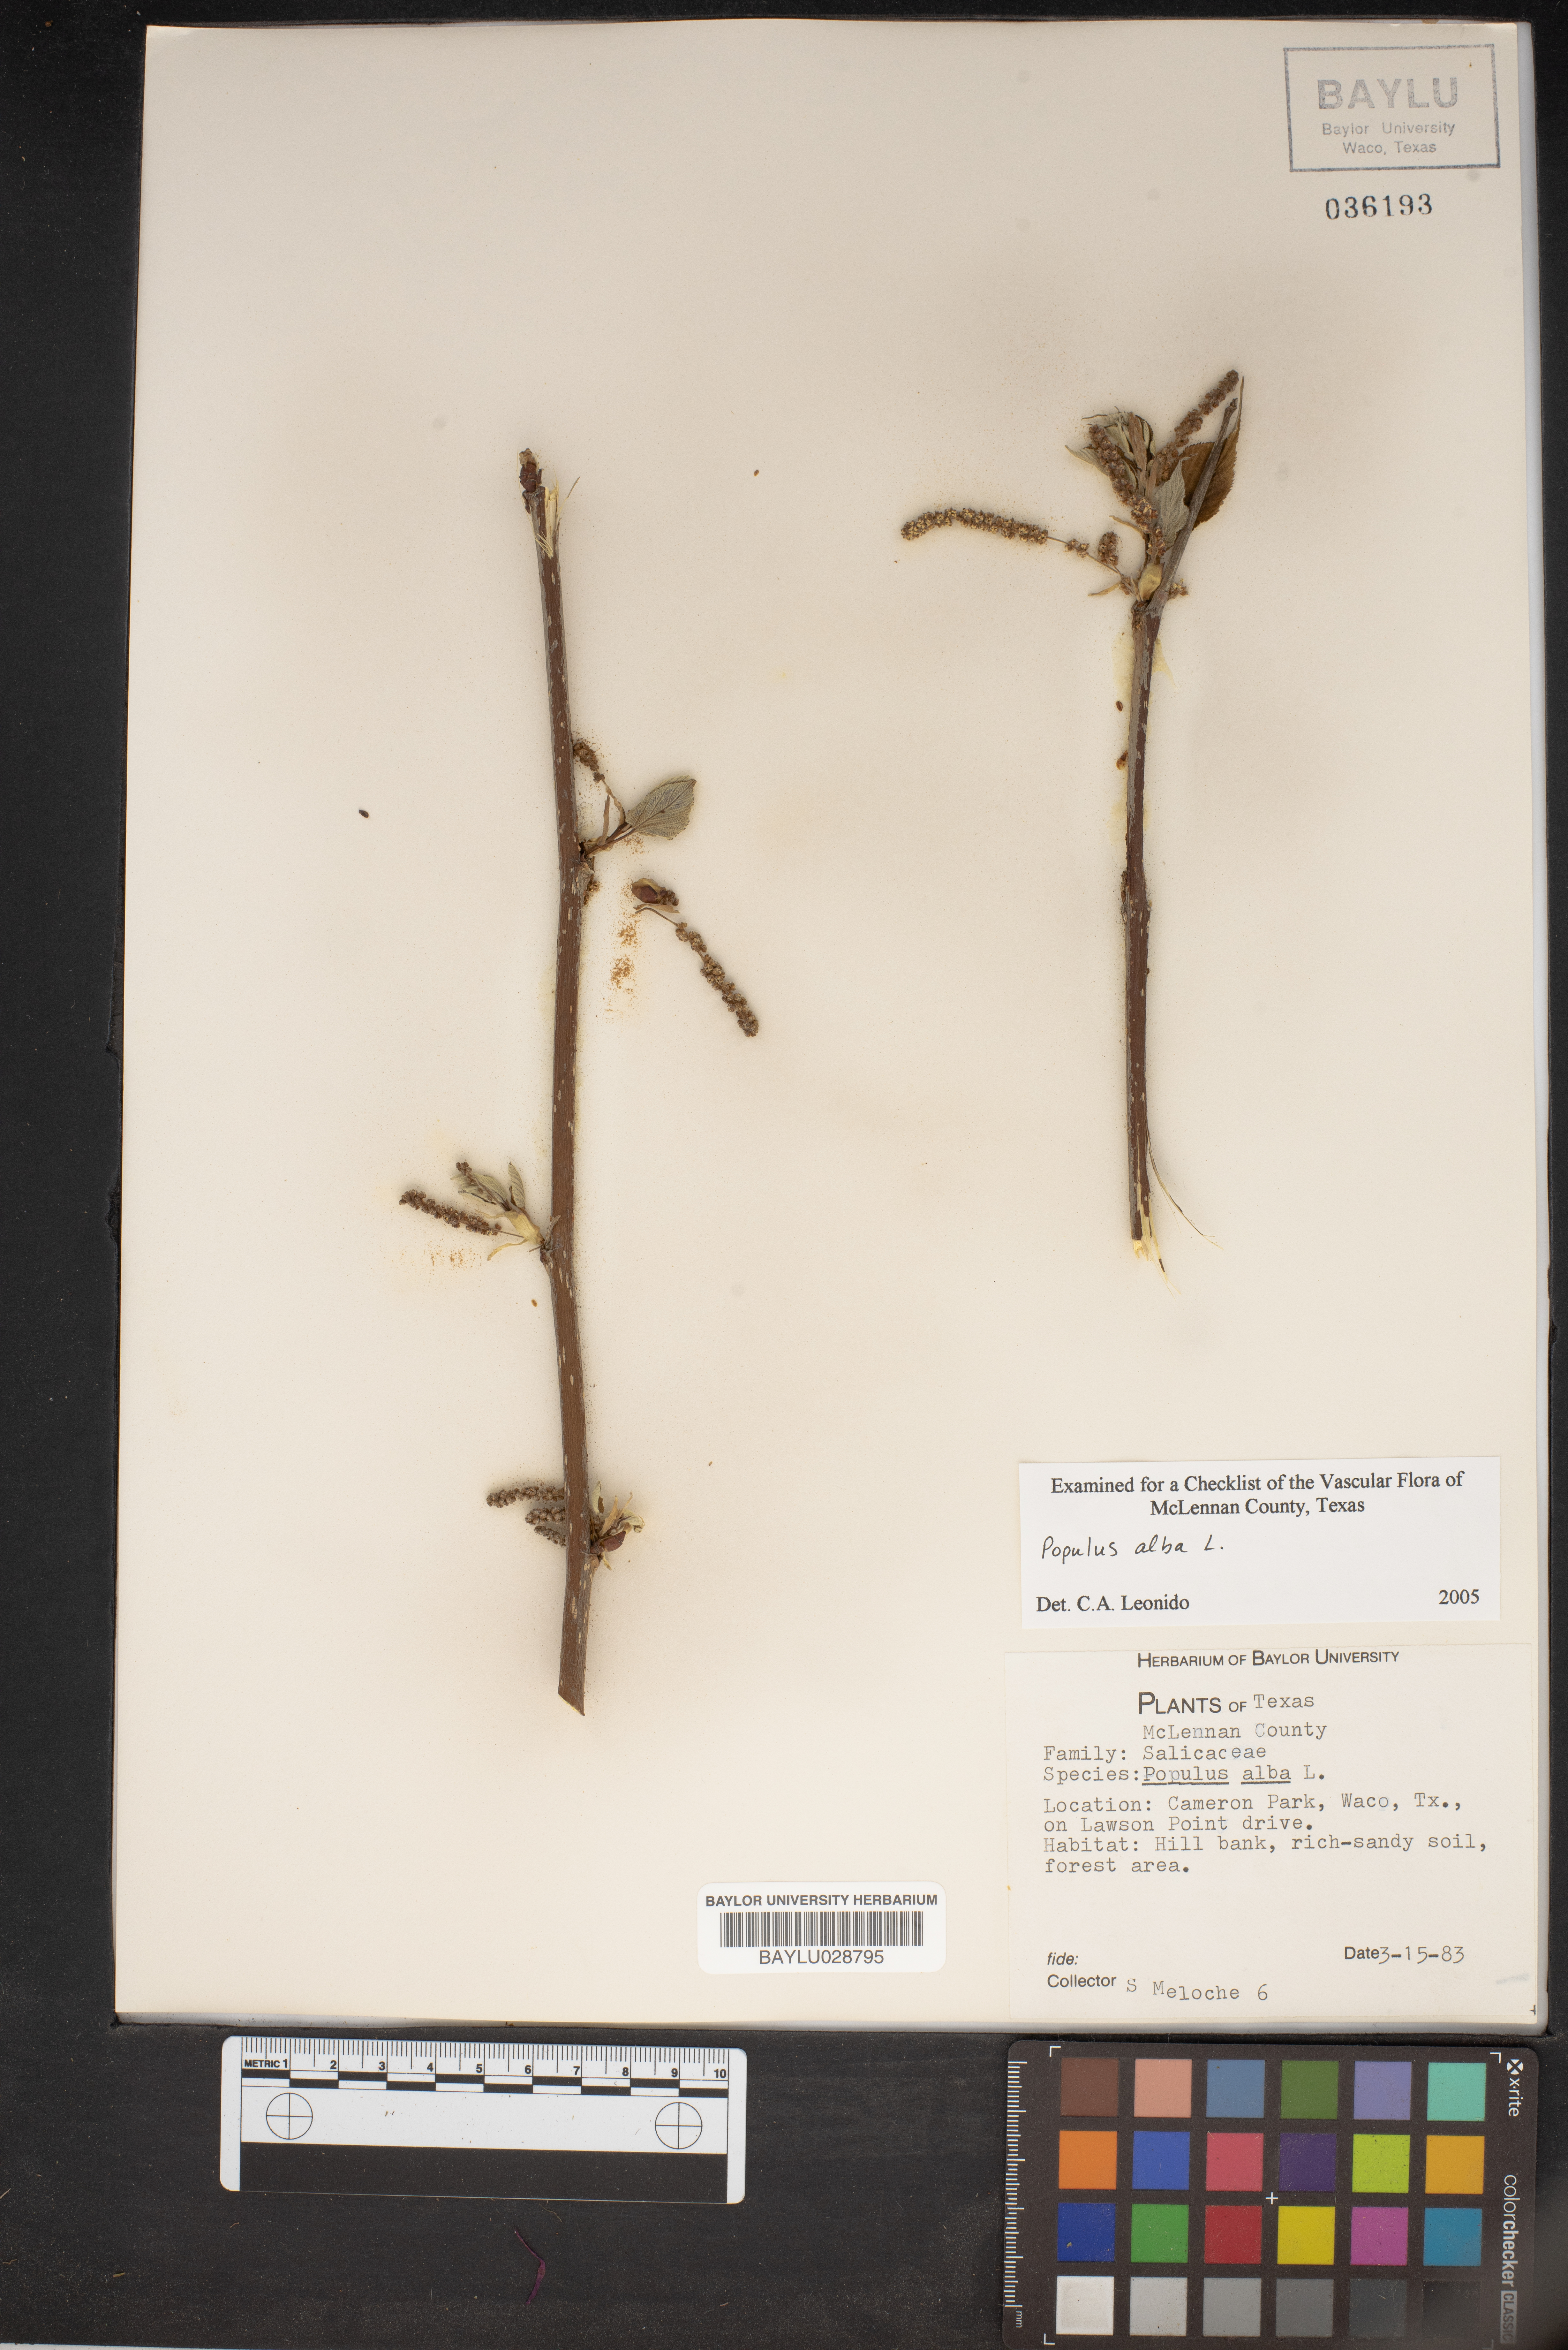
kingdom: Plantae
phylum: Tracheophyta
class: Magnoliopsida
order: Malpighiales
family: Salicaceae
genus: Populus
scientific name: Populus alba
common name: White poplar
